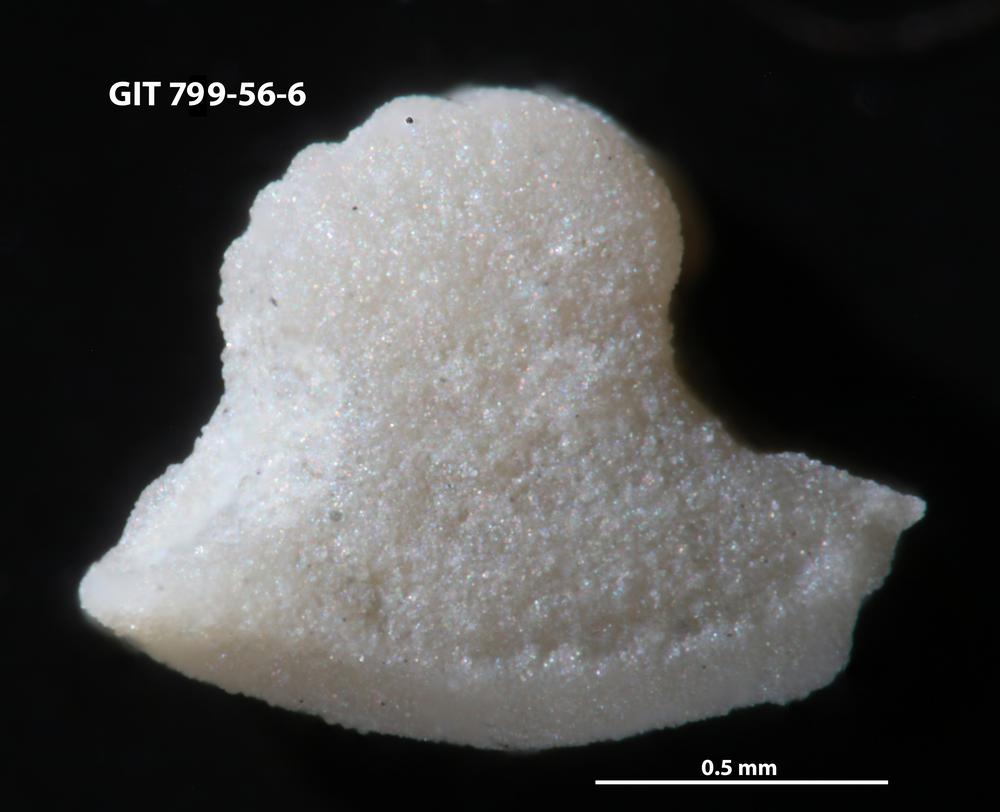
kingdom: Animalia
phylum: Echinodermata
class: Crinoidea
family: Cyclocystoididae
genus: Polytryphocycloides
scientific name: Polytryphocycloides
